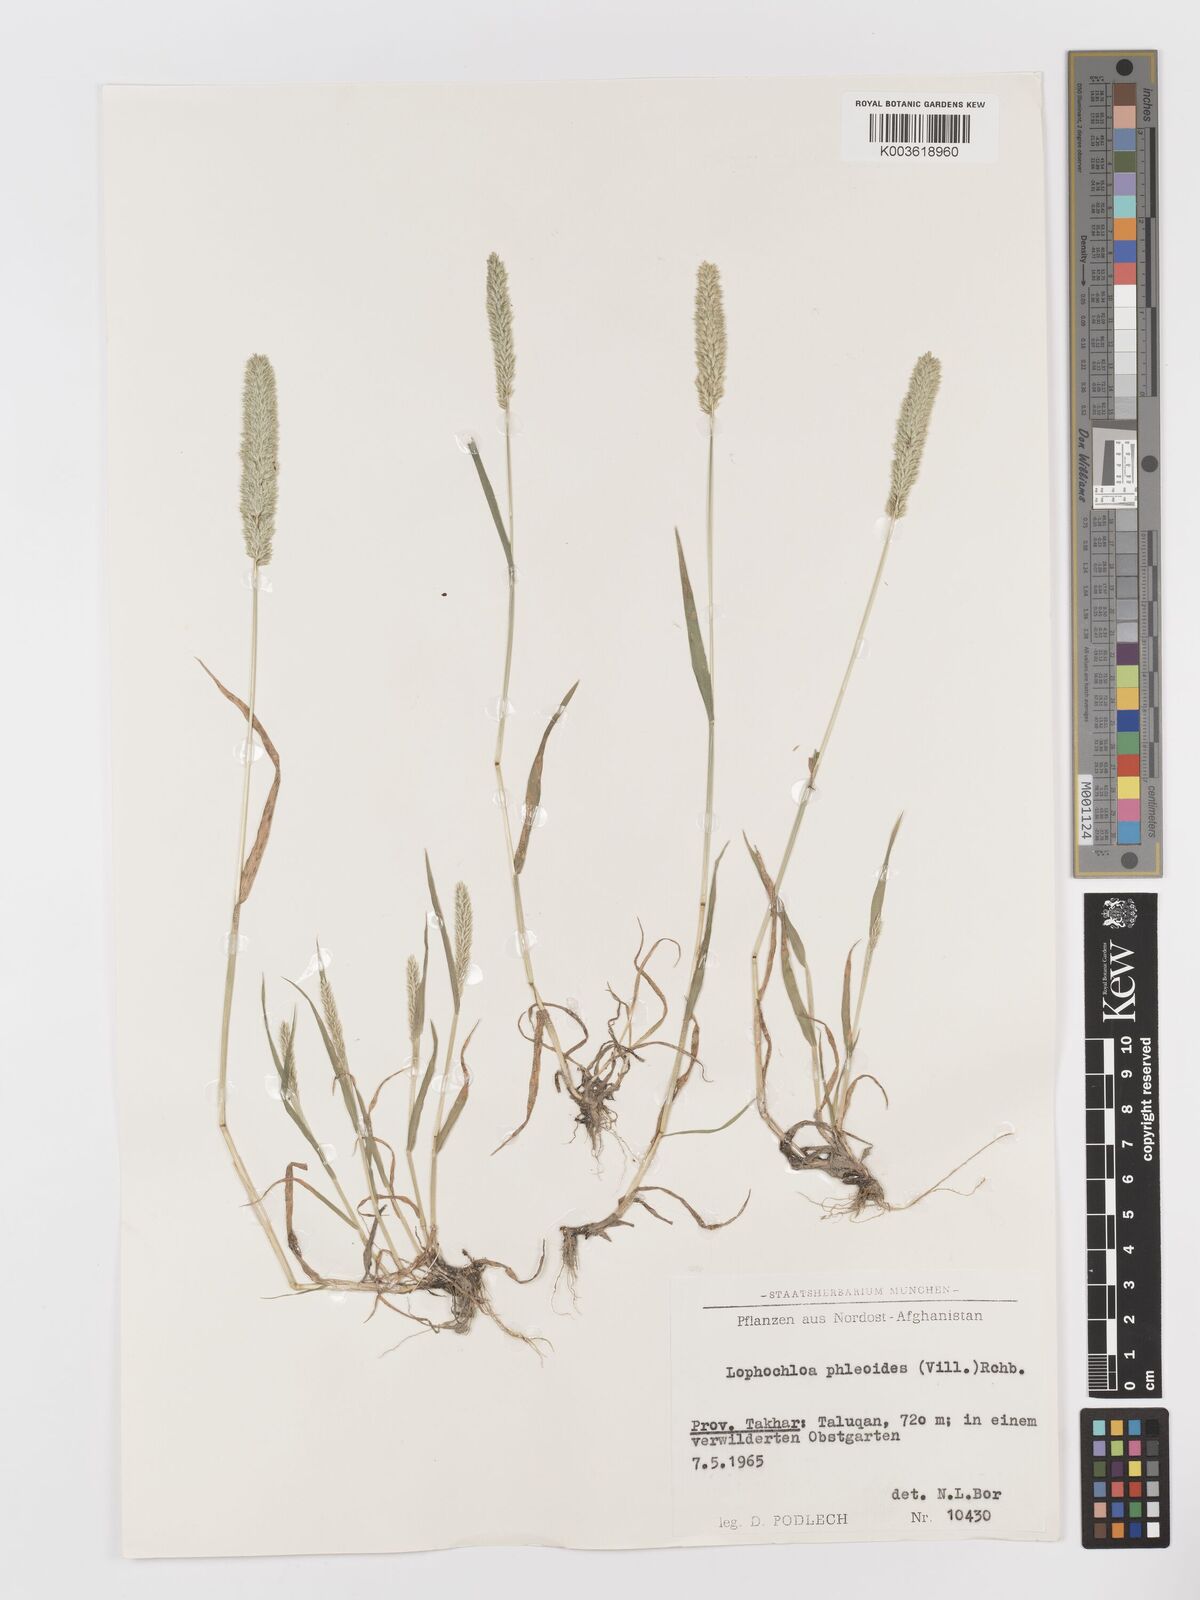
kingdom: Plantae
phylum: Tracheophyta
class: Liliopsida
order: Poales
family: Poaceae
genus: Rostraria
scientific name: Rostraria cristata
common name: Mediterranean hair-grass
